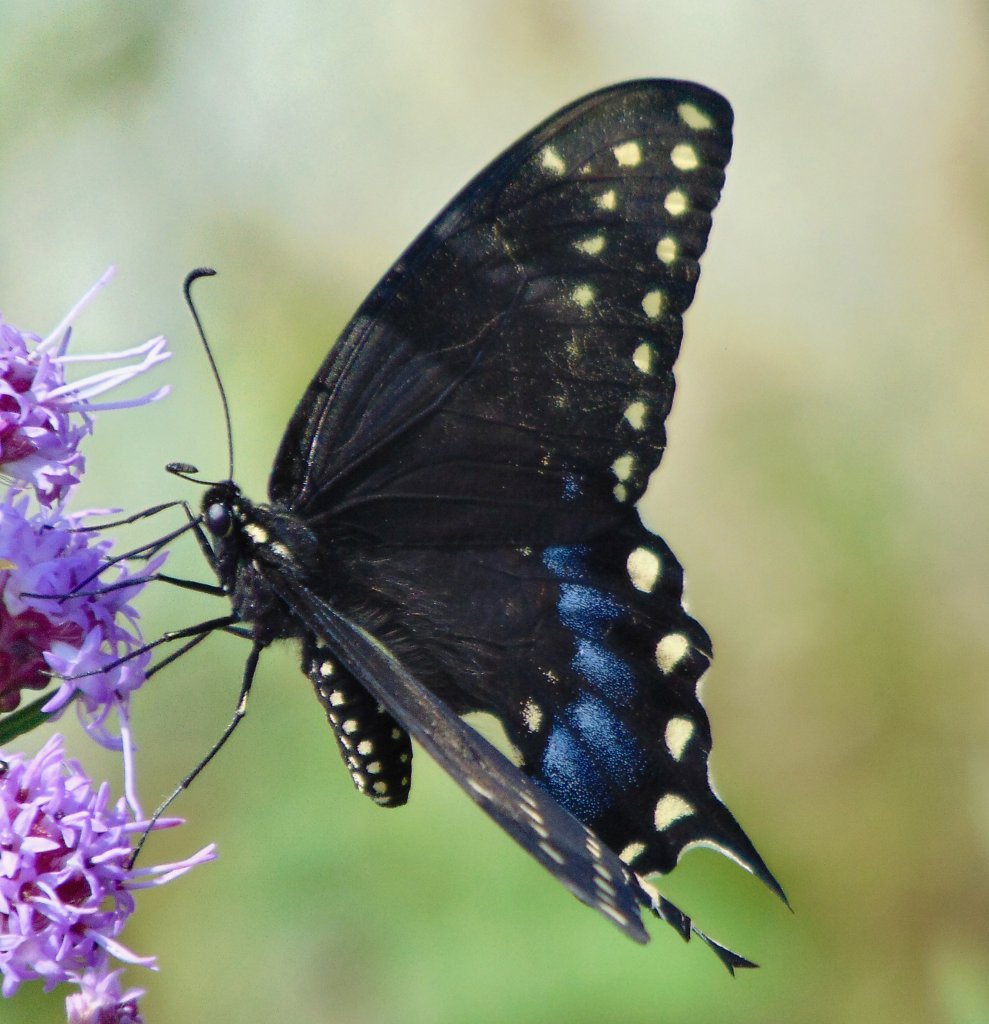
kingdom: Animalia
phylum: Arthropoda
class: Insecta
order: Lepidoptera
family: Papilionidae
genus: Papilio
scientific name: Papilio polyxenes
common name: Black Swallowtail
